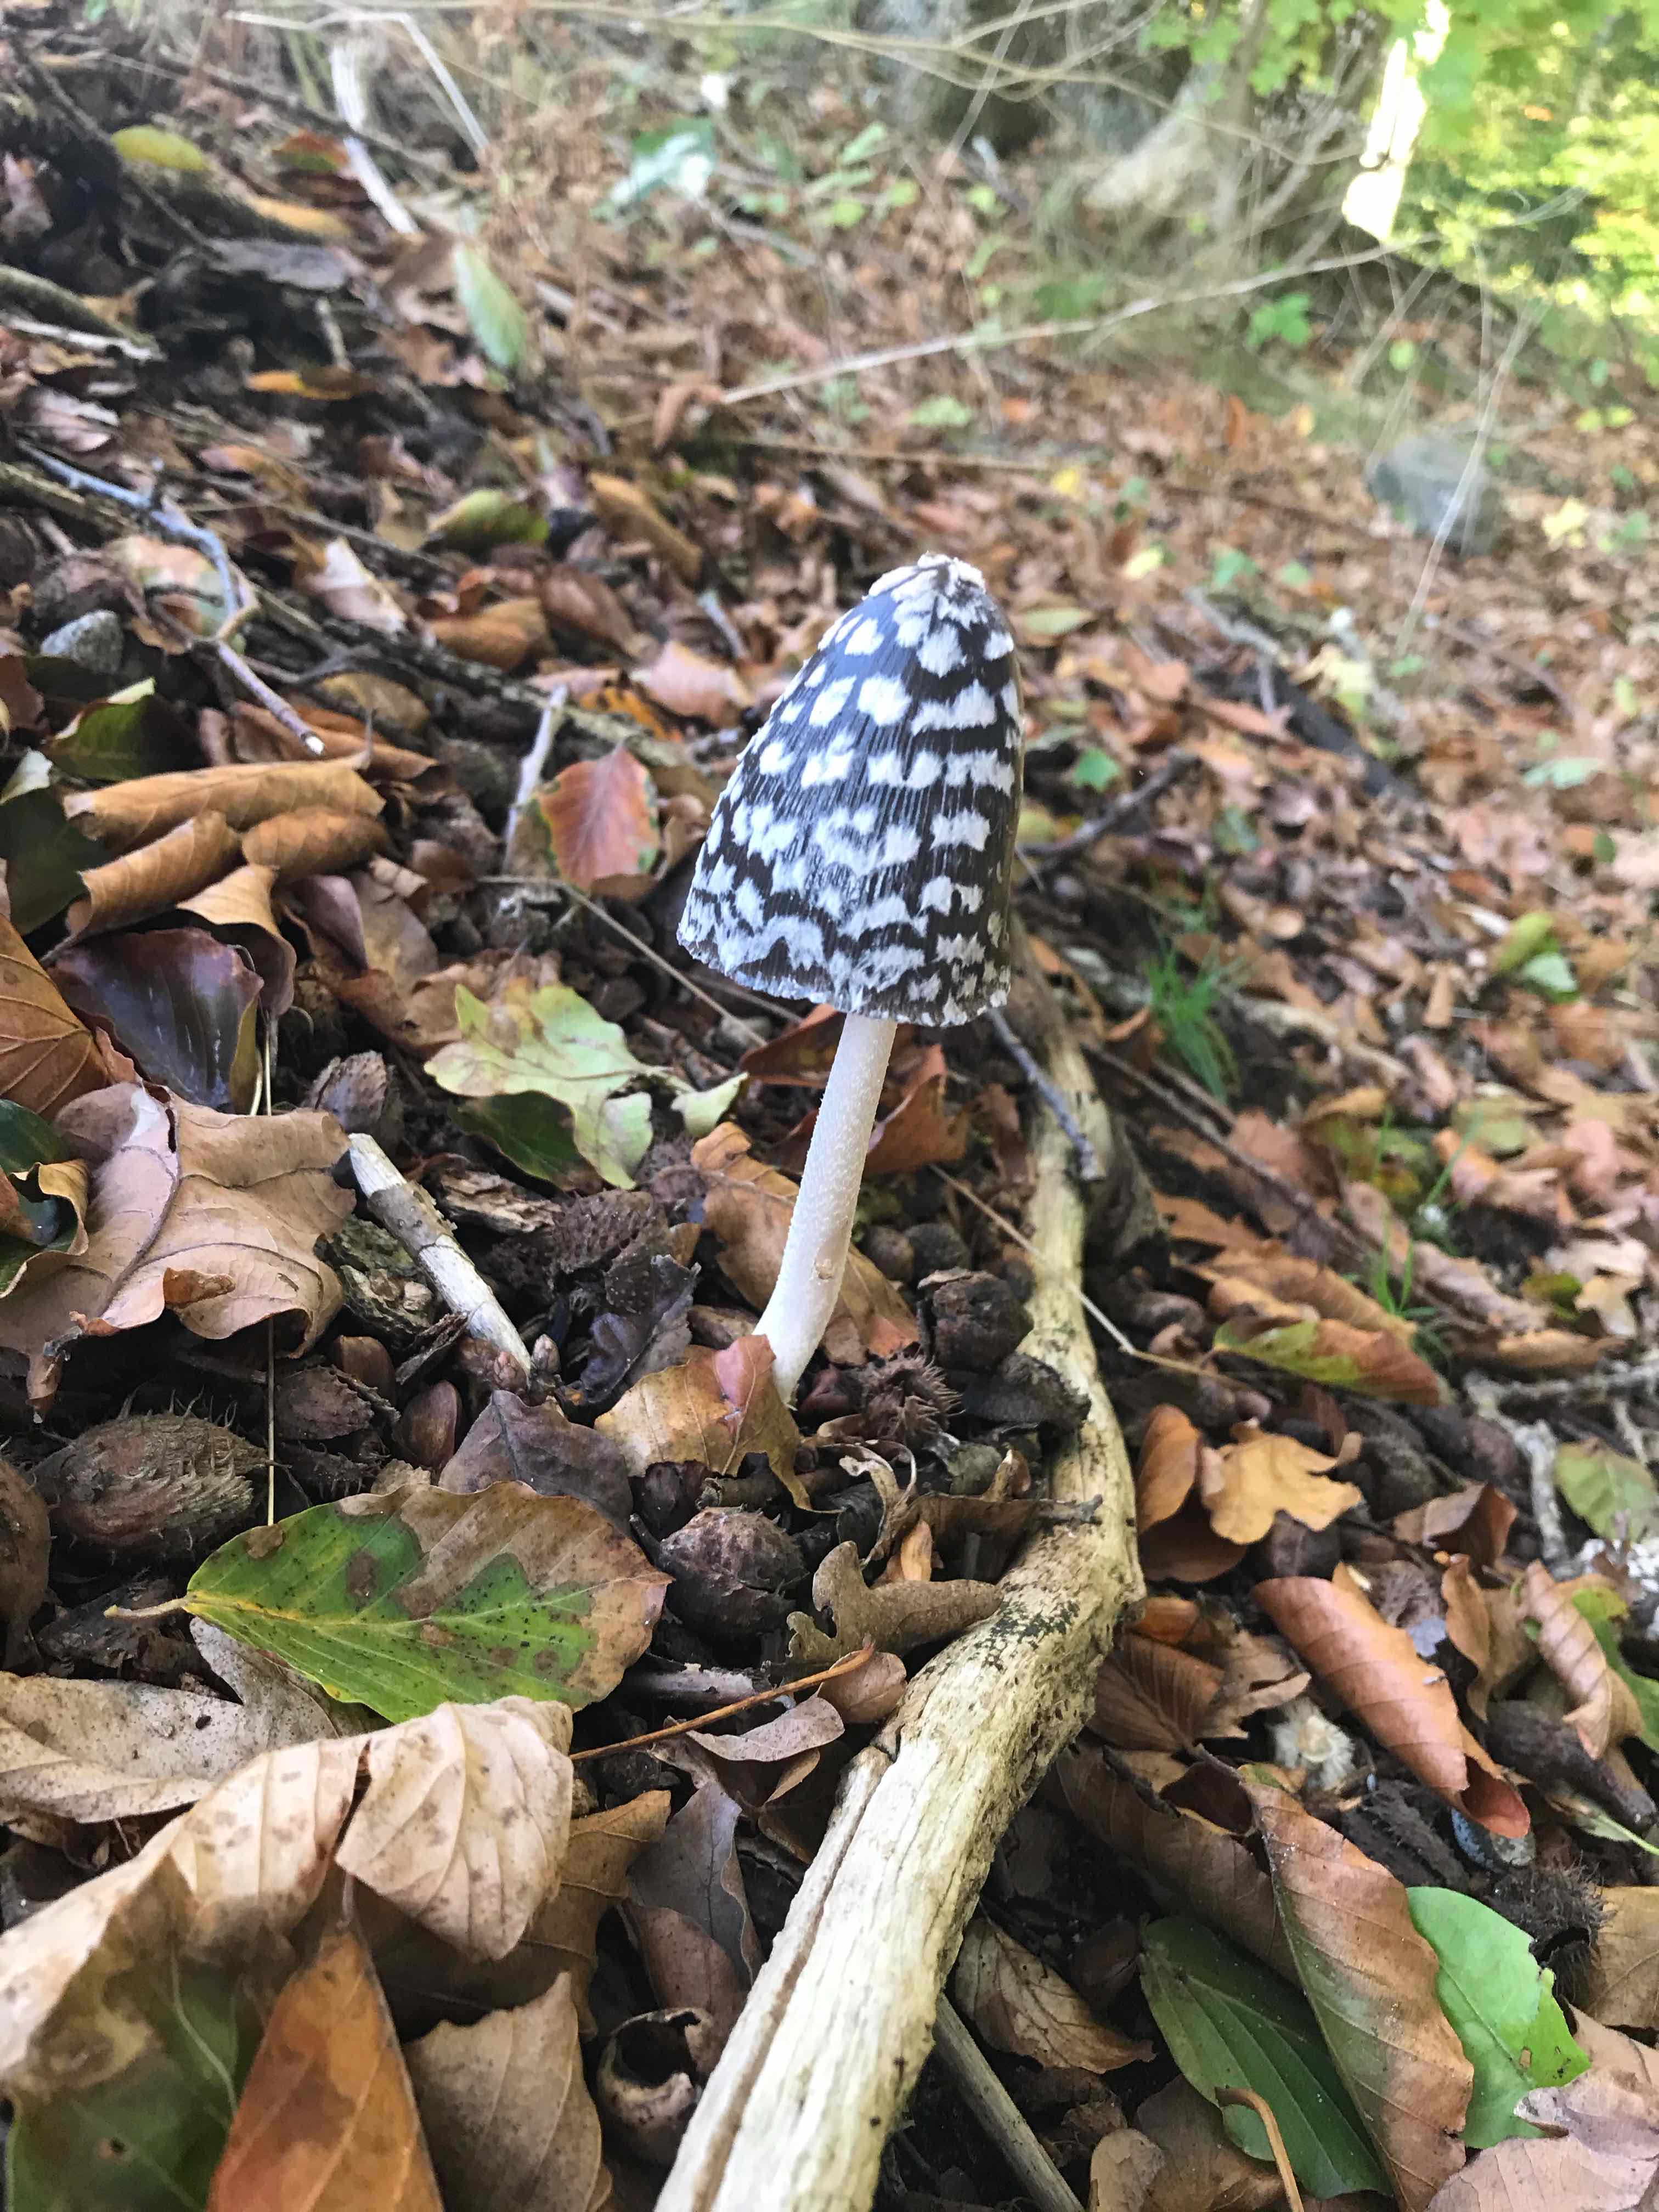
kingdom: Fungi
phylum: Basidiomycota
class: Agaricomycetes
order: Agaricales
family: Psathyrellaceae
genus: Coprinopsis
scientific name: Coprinopsis picacea
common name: skade-blækhat
